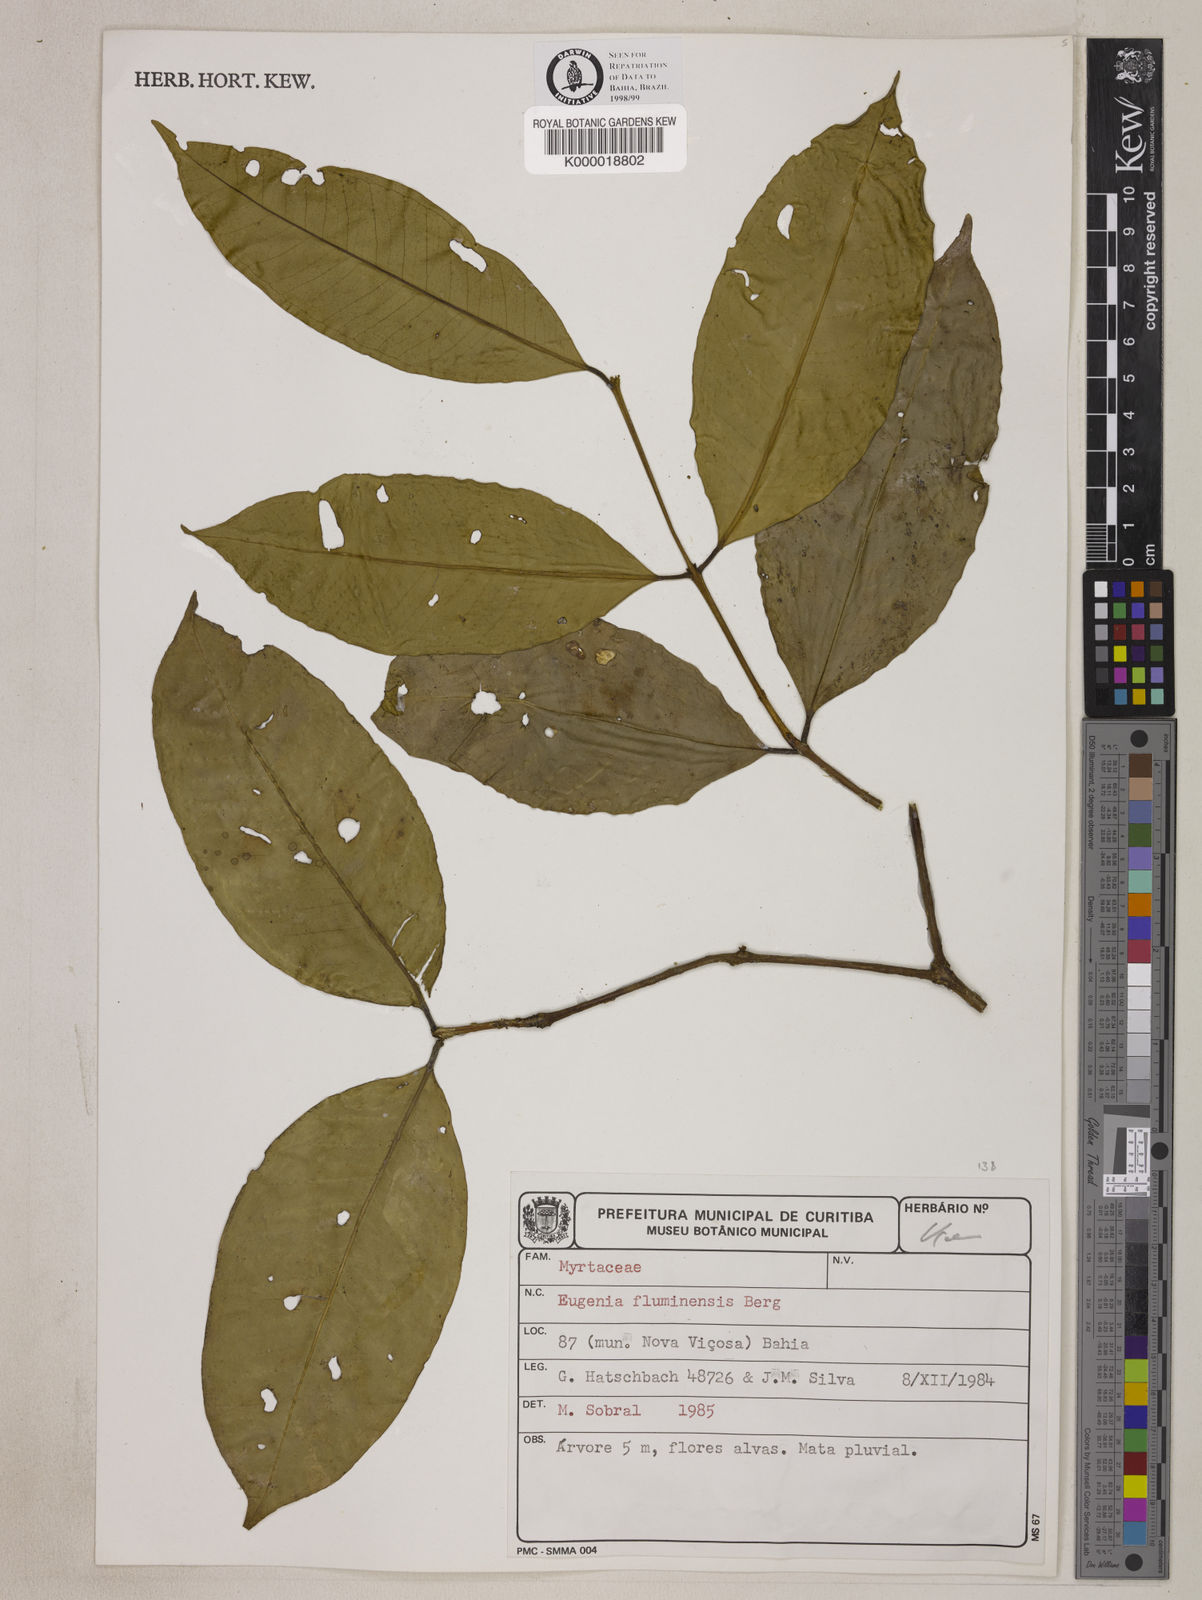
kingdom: Plantae
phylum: Tracheophyta
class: Magnoliopsida
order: Myrtales
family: Myrtaceae
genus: Eugenia
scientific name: Eugenia fluminensis
